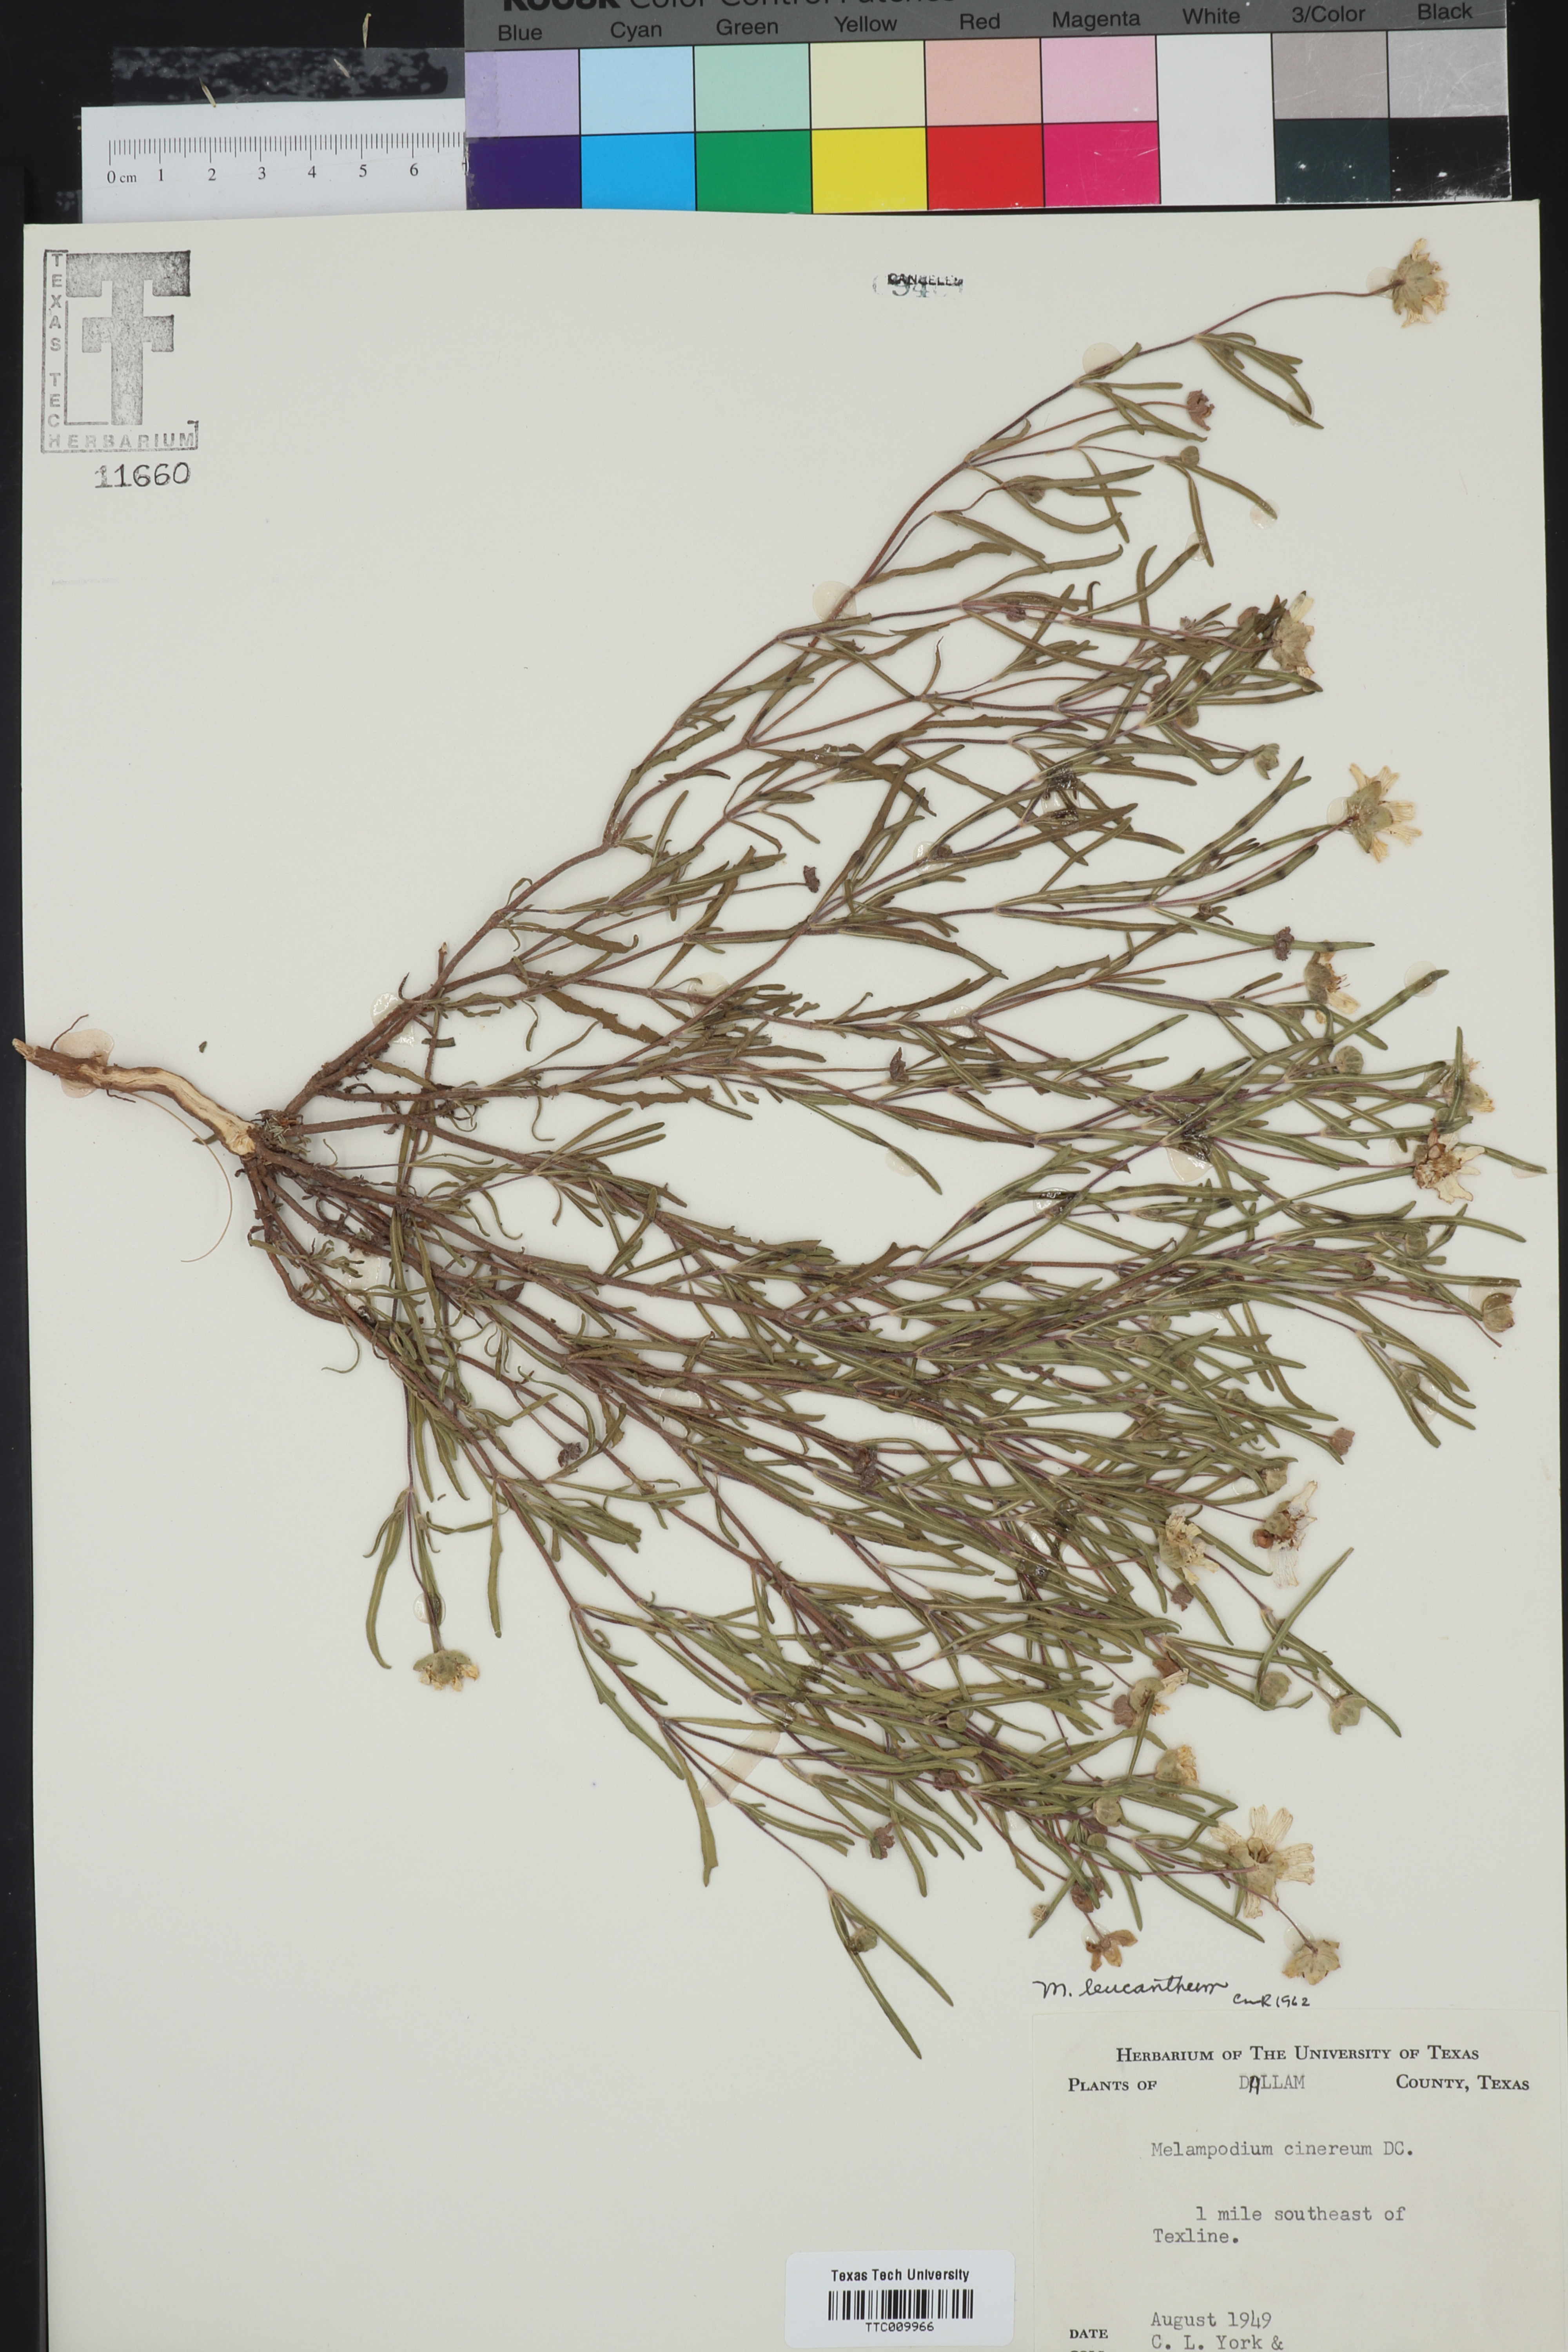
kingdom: Plantae
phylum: Tracheophyta
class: Magnoliopsida
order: Asterales
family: Asteraceae
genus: Melampodium
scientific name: Melampodium leucanthum
